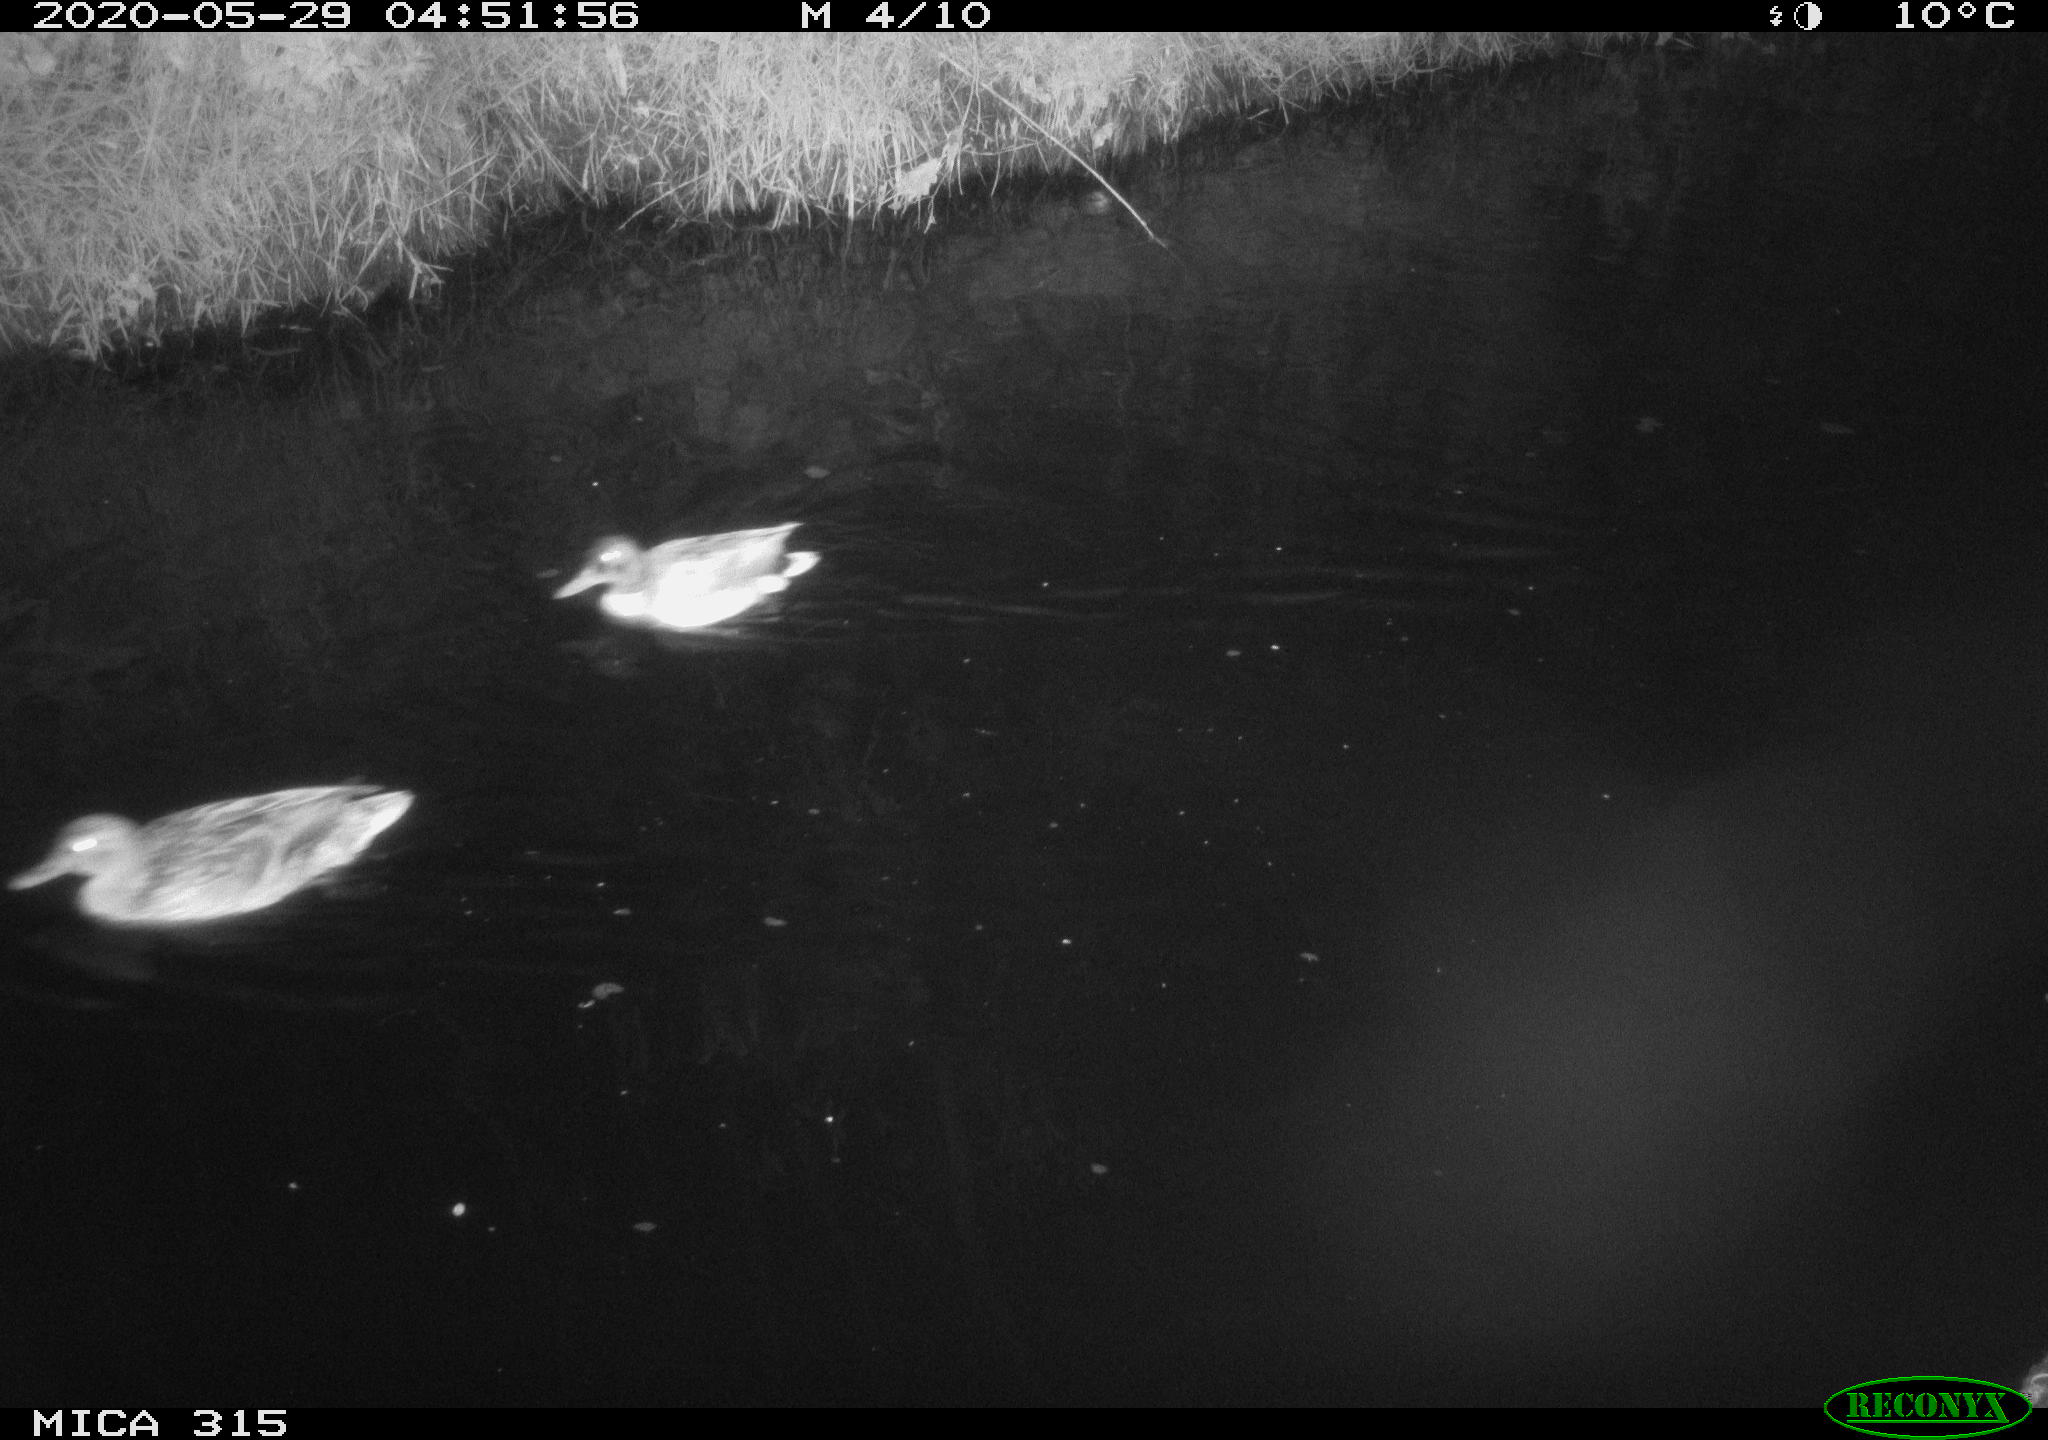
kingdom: Animalia
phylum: Chordata
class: Aves
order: Anseriformes
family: Anatidae
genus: Anas
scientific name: Anas platyrhynchos
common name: Mallard
